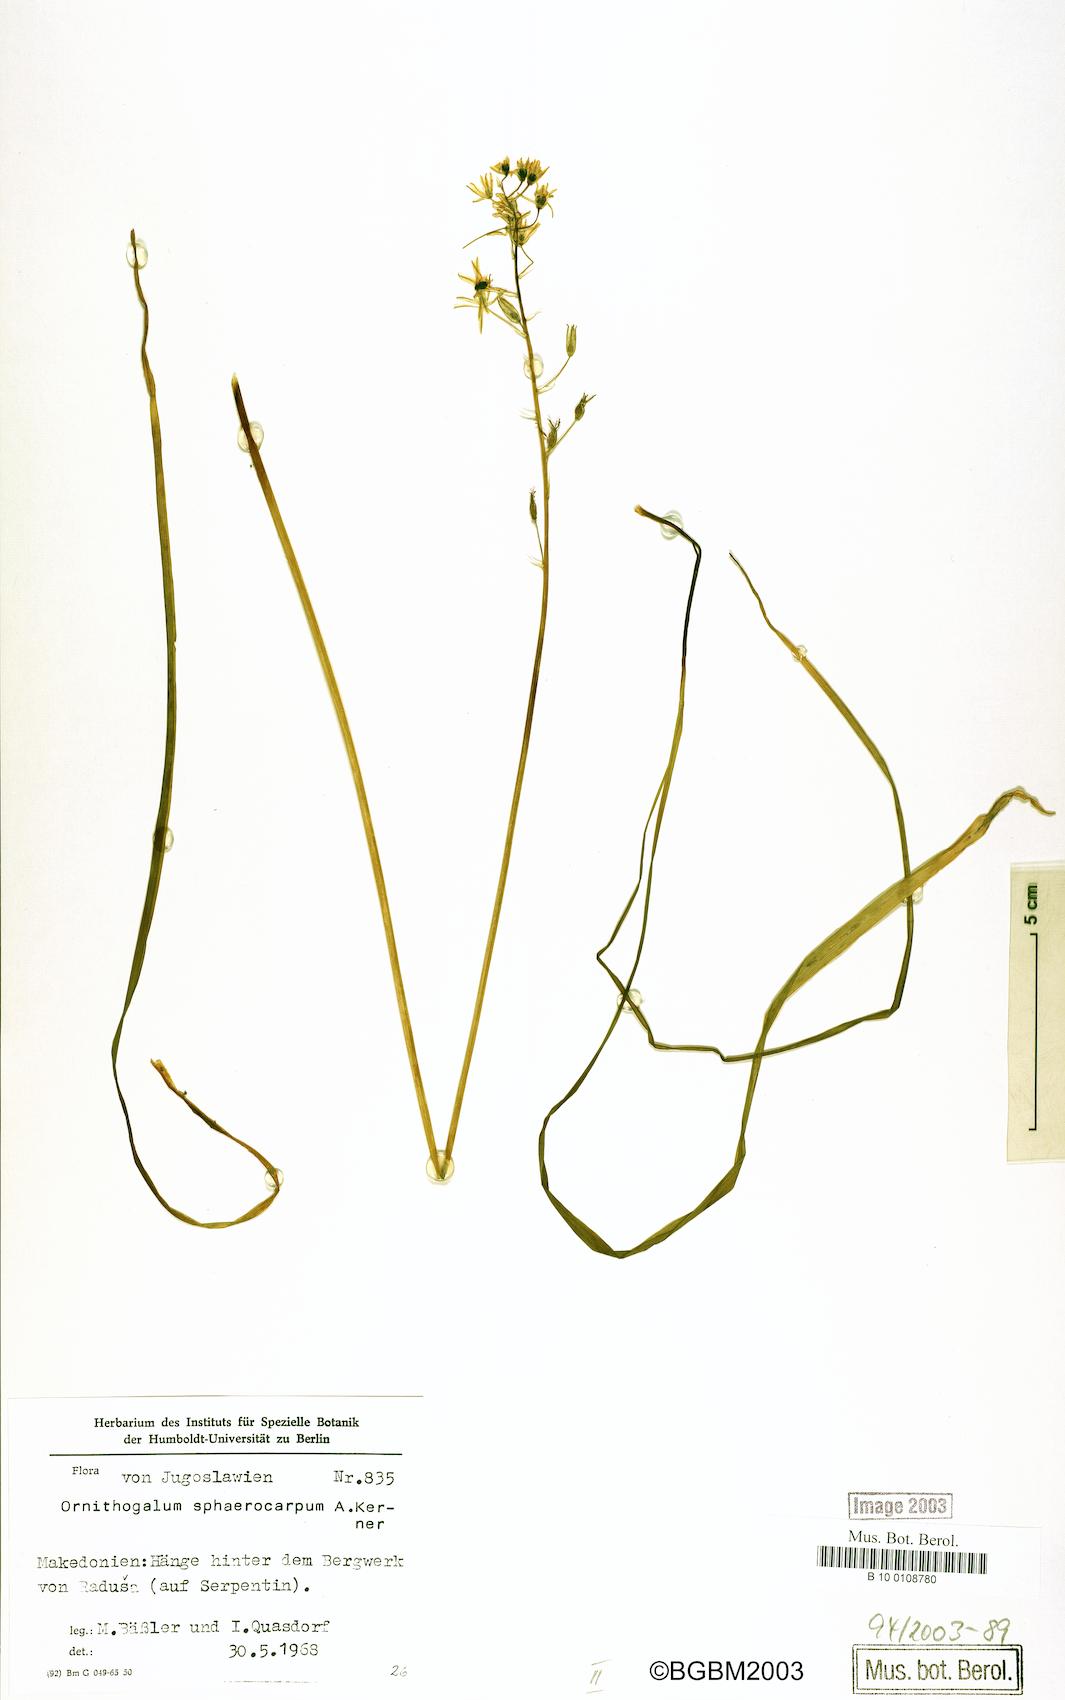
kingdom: Plantae
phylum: Tracheophyta
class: Liliopsida
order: Asparagales
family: Asparagaceae
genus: Ornithogalum
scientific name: Ornithogalum sphaerocarpum
